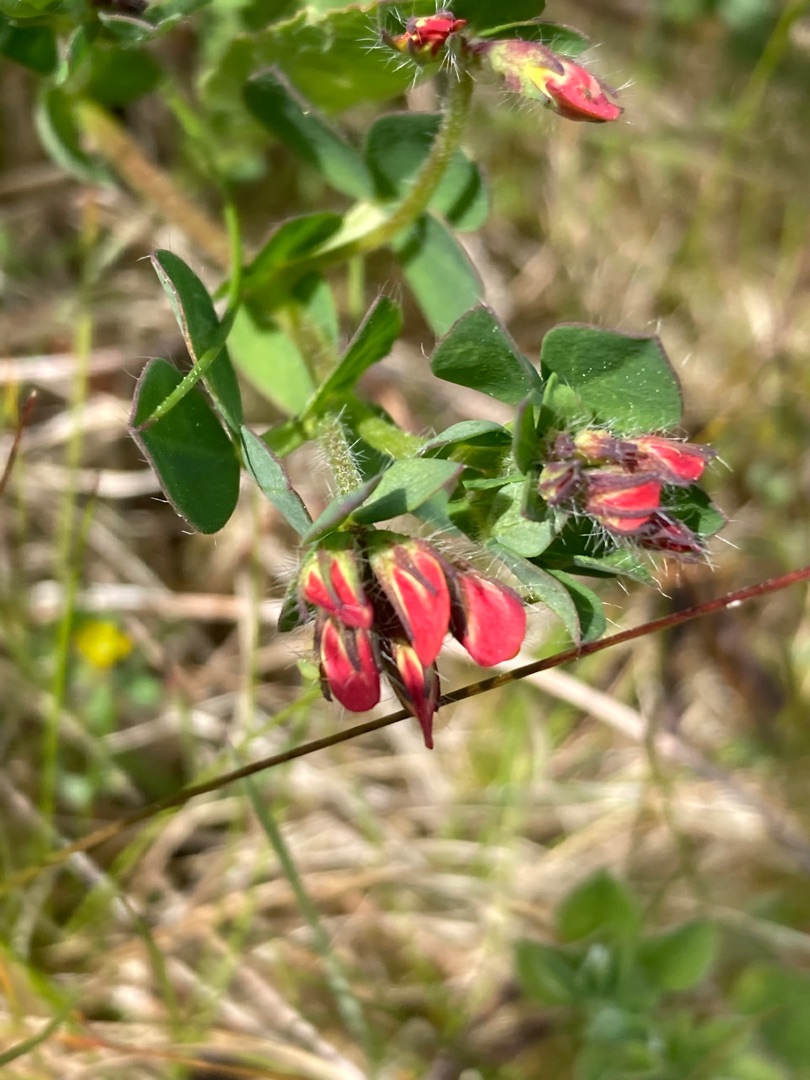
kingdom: Plantae
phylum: Tracheophyta
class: Magnoliopsida
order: Fabales
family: Fabaceae
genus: Lotus
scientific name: Lotus corniculatus
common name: Almindelig kællingetand
